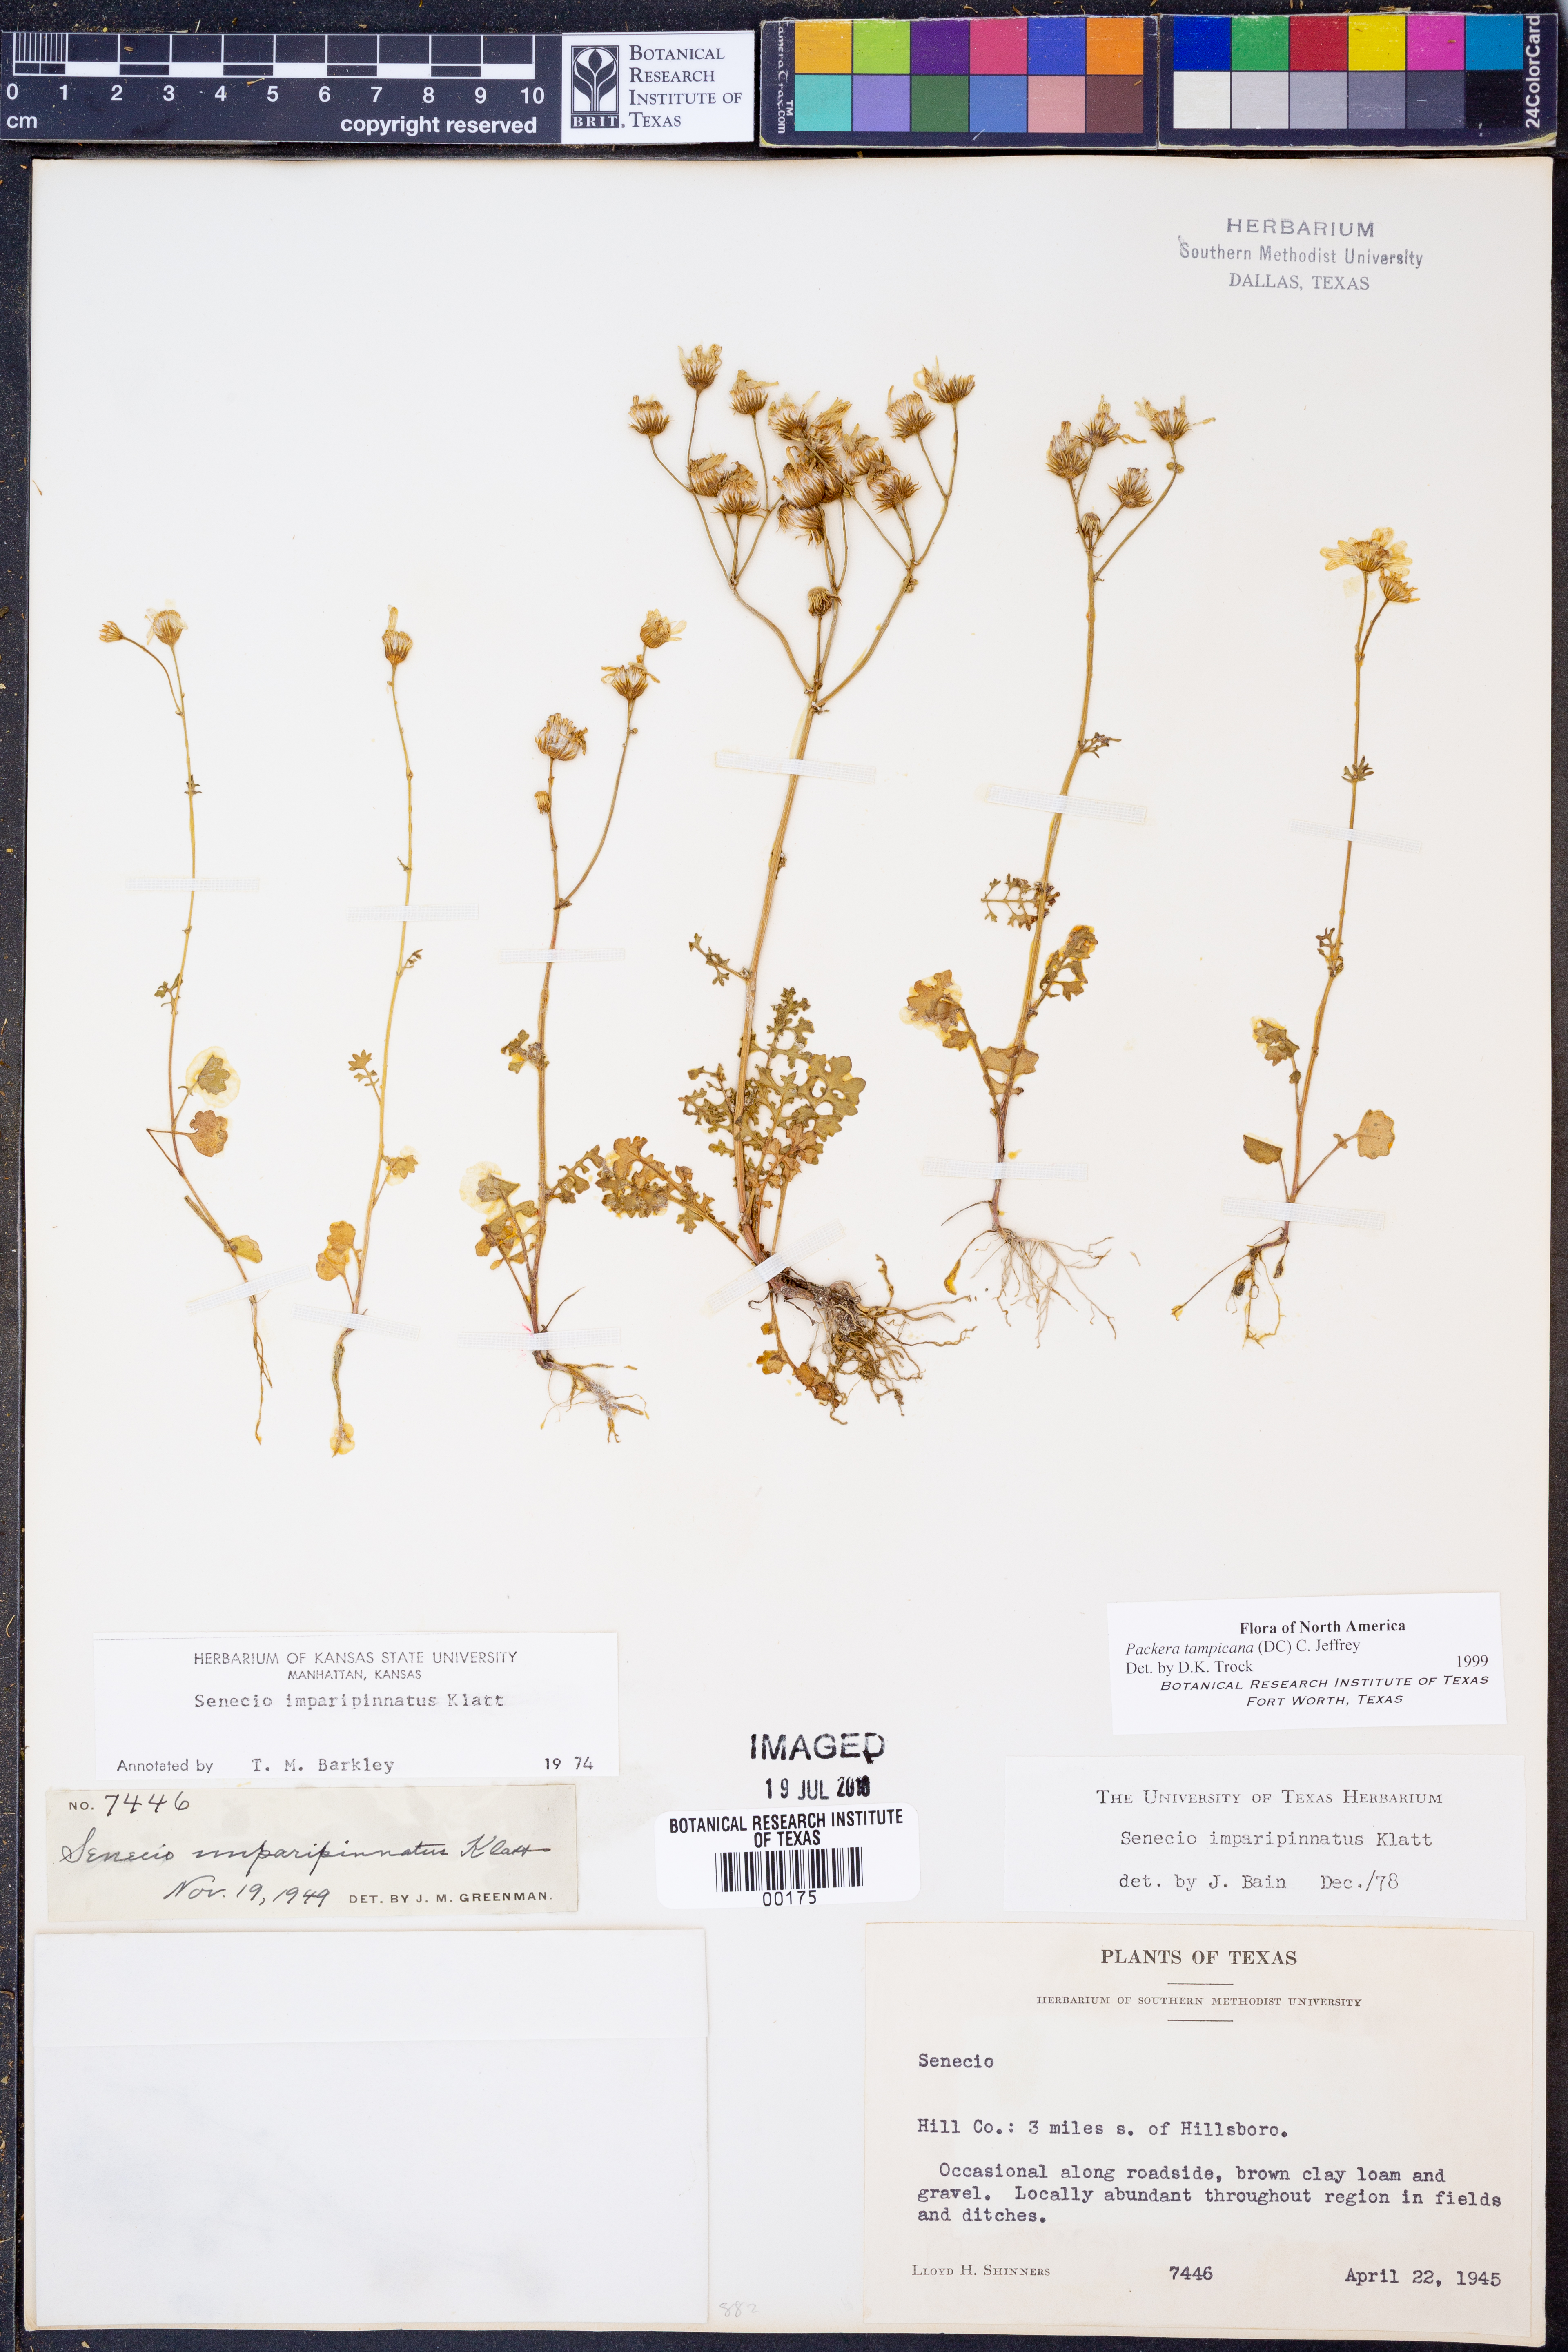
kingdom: Plantae
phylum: Tracheophyta
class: Magnoliopsida
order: Asterales
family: Asteraceae
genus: Packera
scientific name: Packera tampicana
